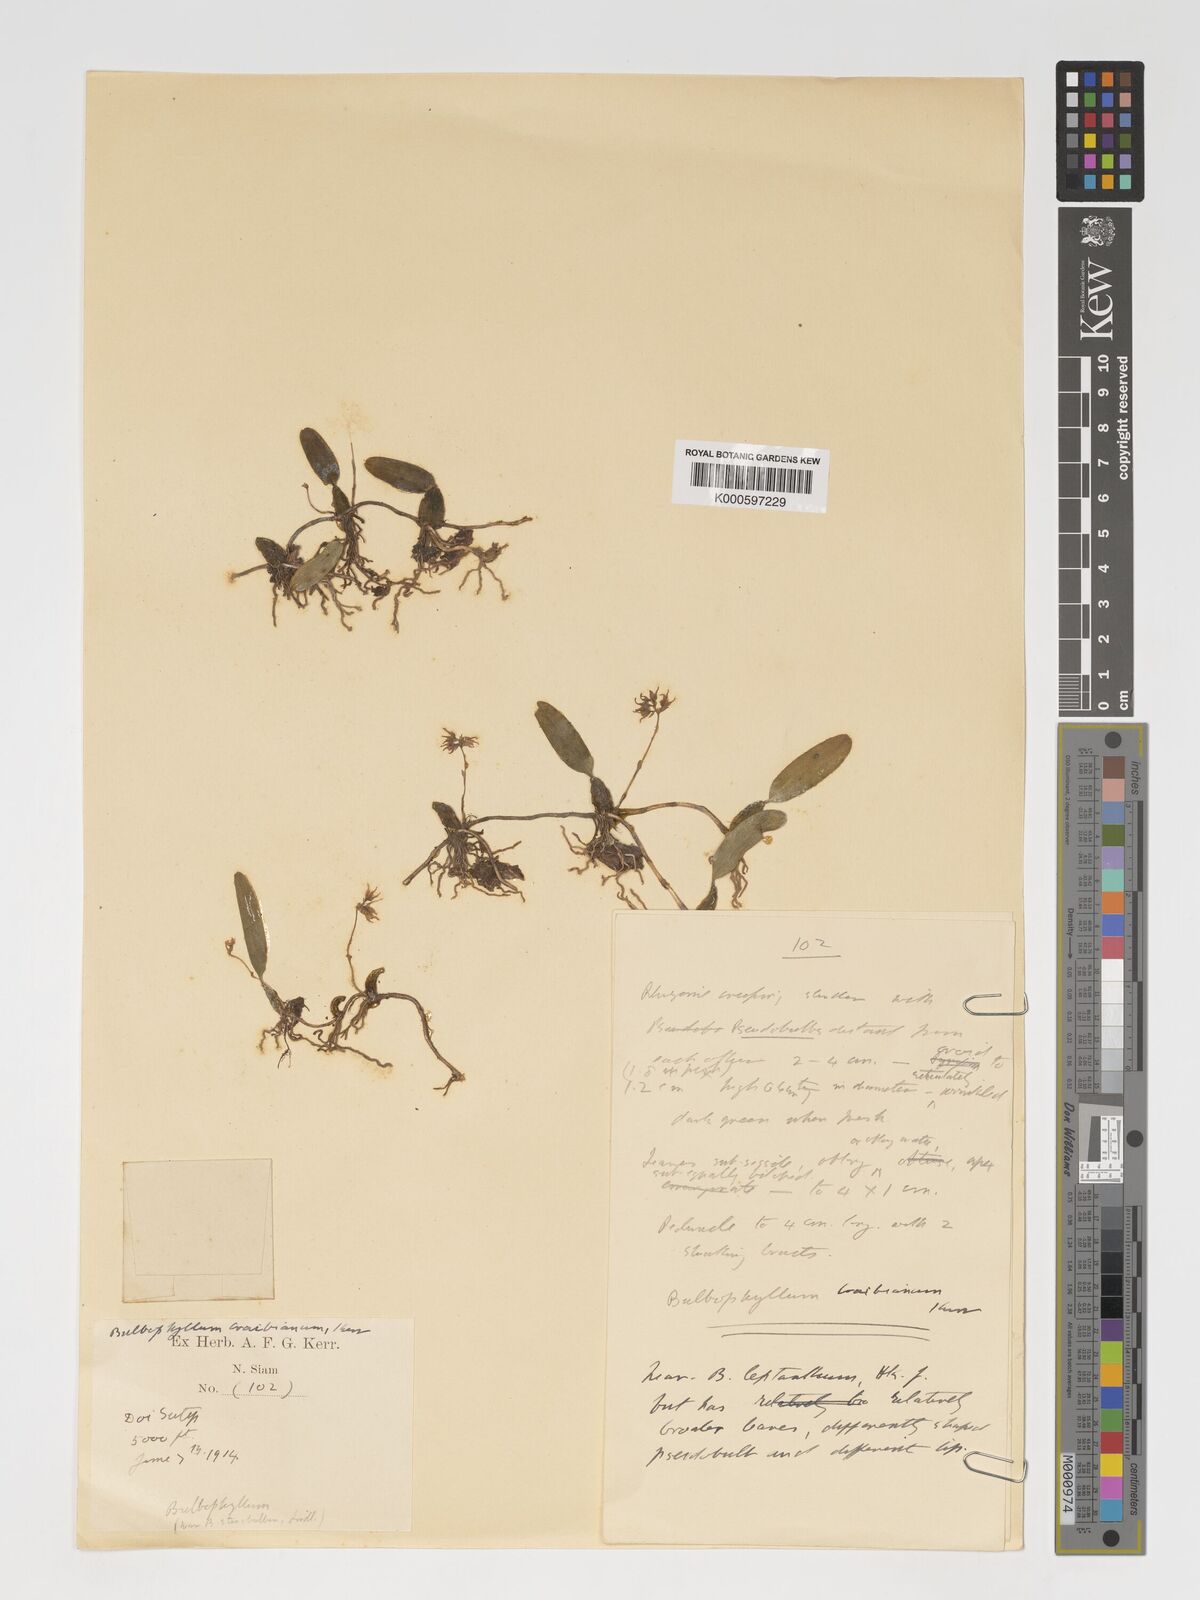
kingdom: Plantae
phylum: Tracheophyta
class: Liliopsida
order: Asparagales
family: Orchidaceae
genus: Bulbophyllum
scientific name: Bulbophyllum shweliense
